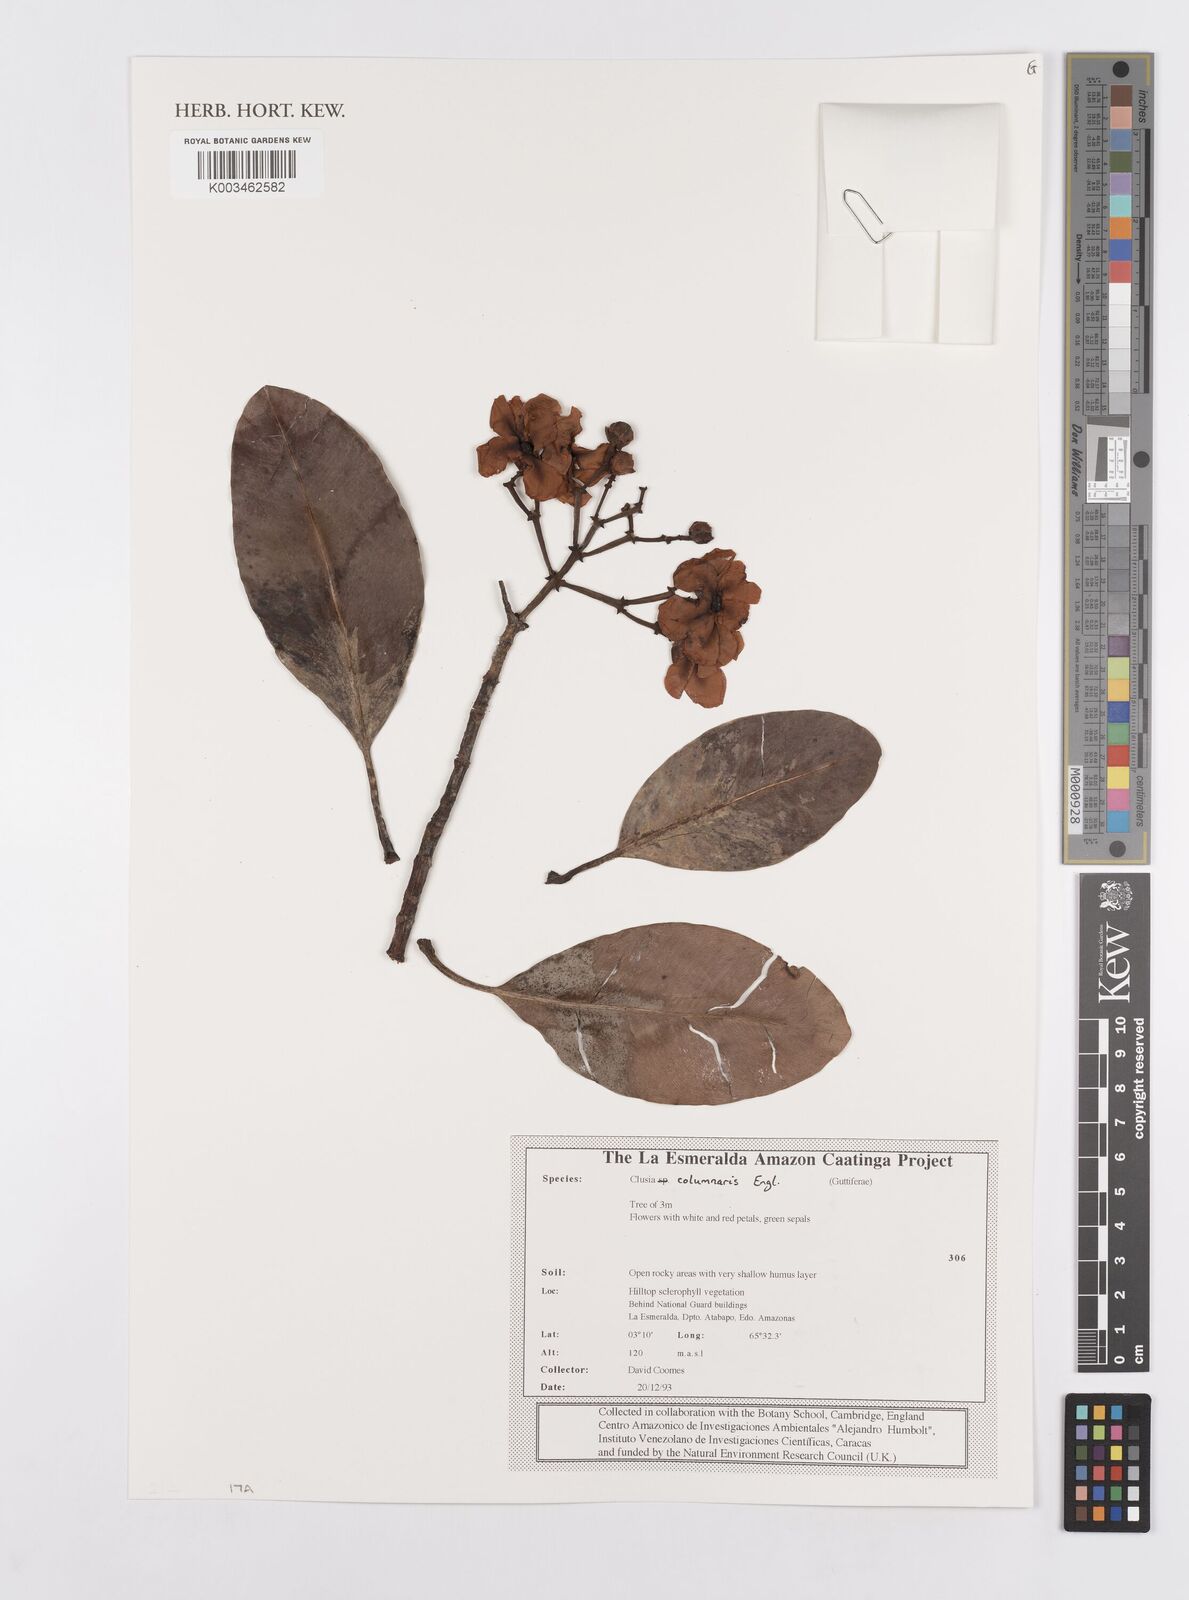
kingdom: Plantae
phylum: Tracheophyta
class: Magnoliopsida
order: Malpighiales
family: Clusiaceae
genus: Clusia
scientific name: Clusia columnaris
